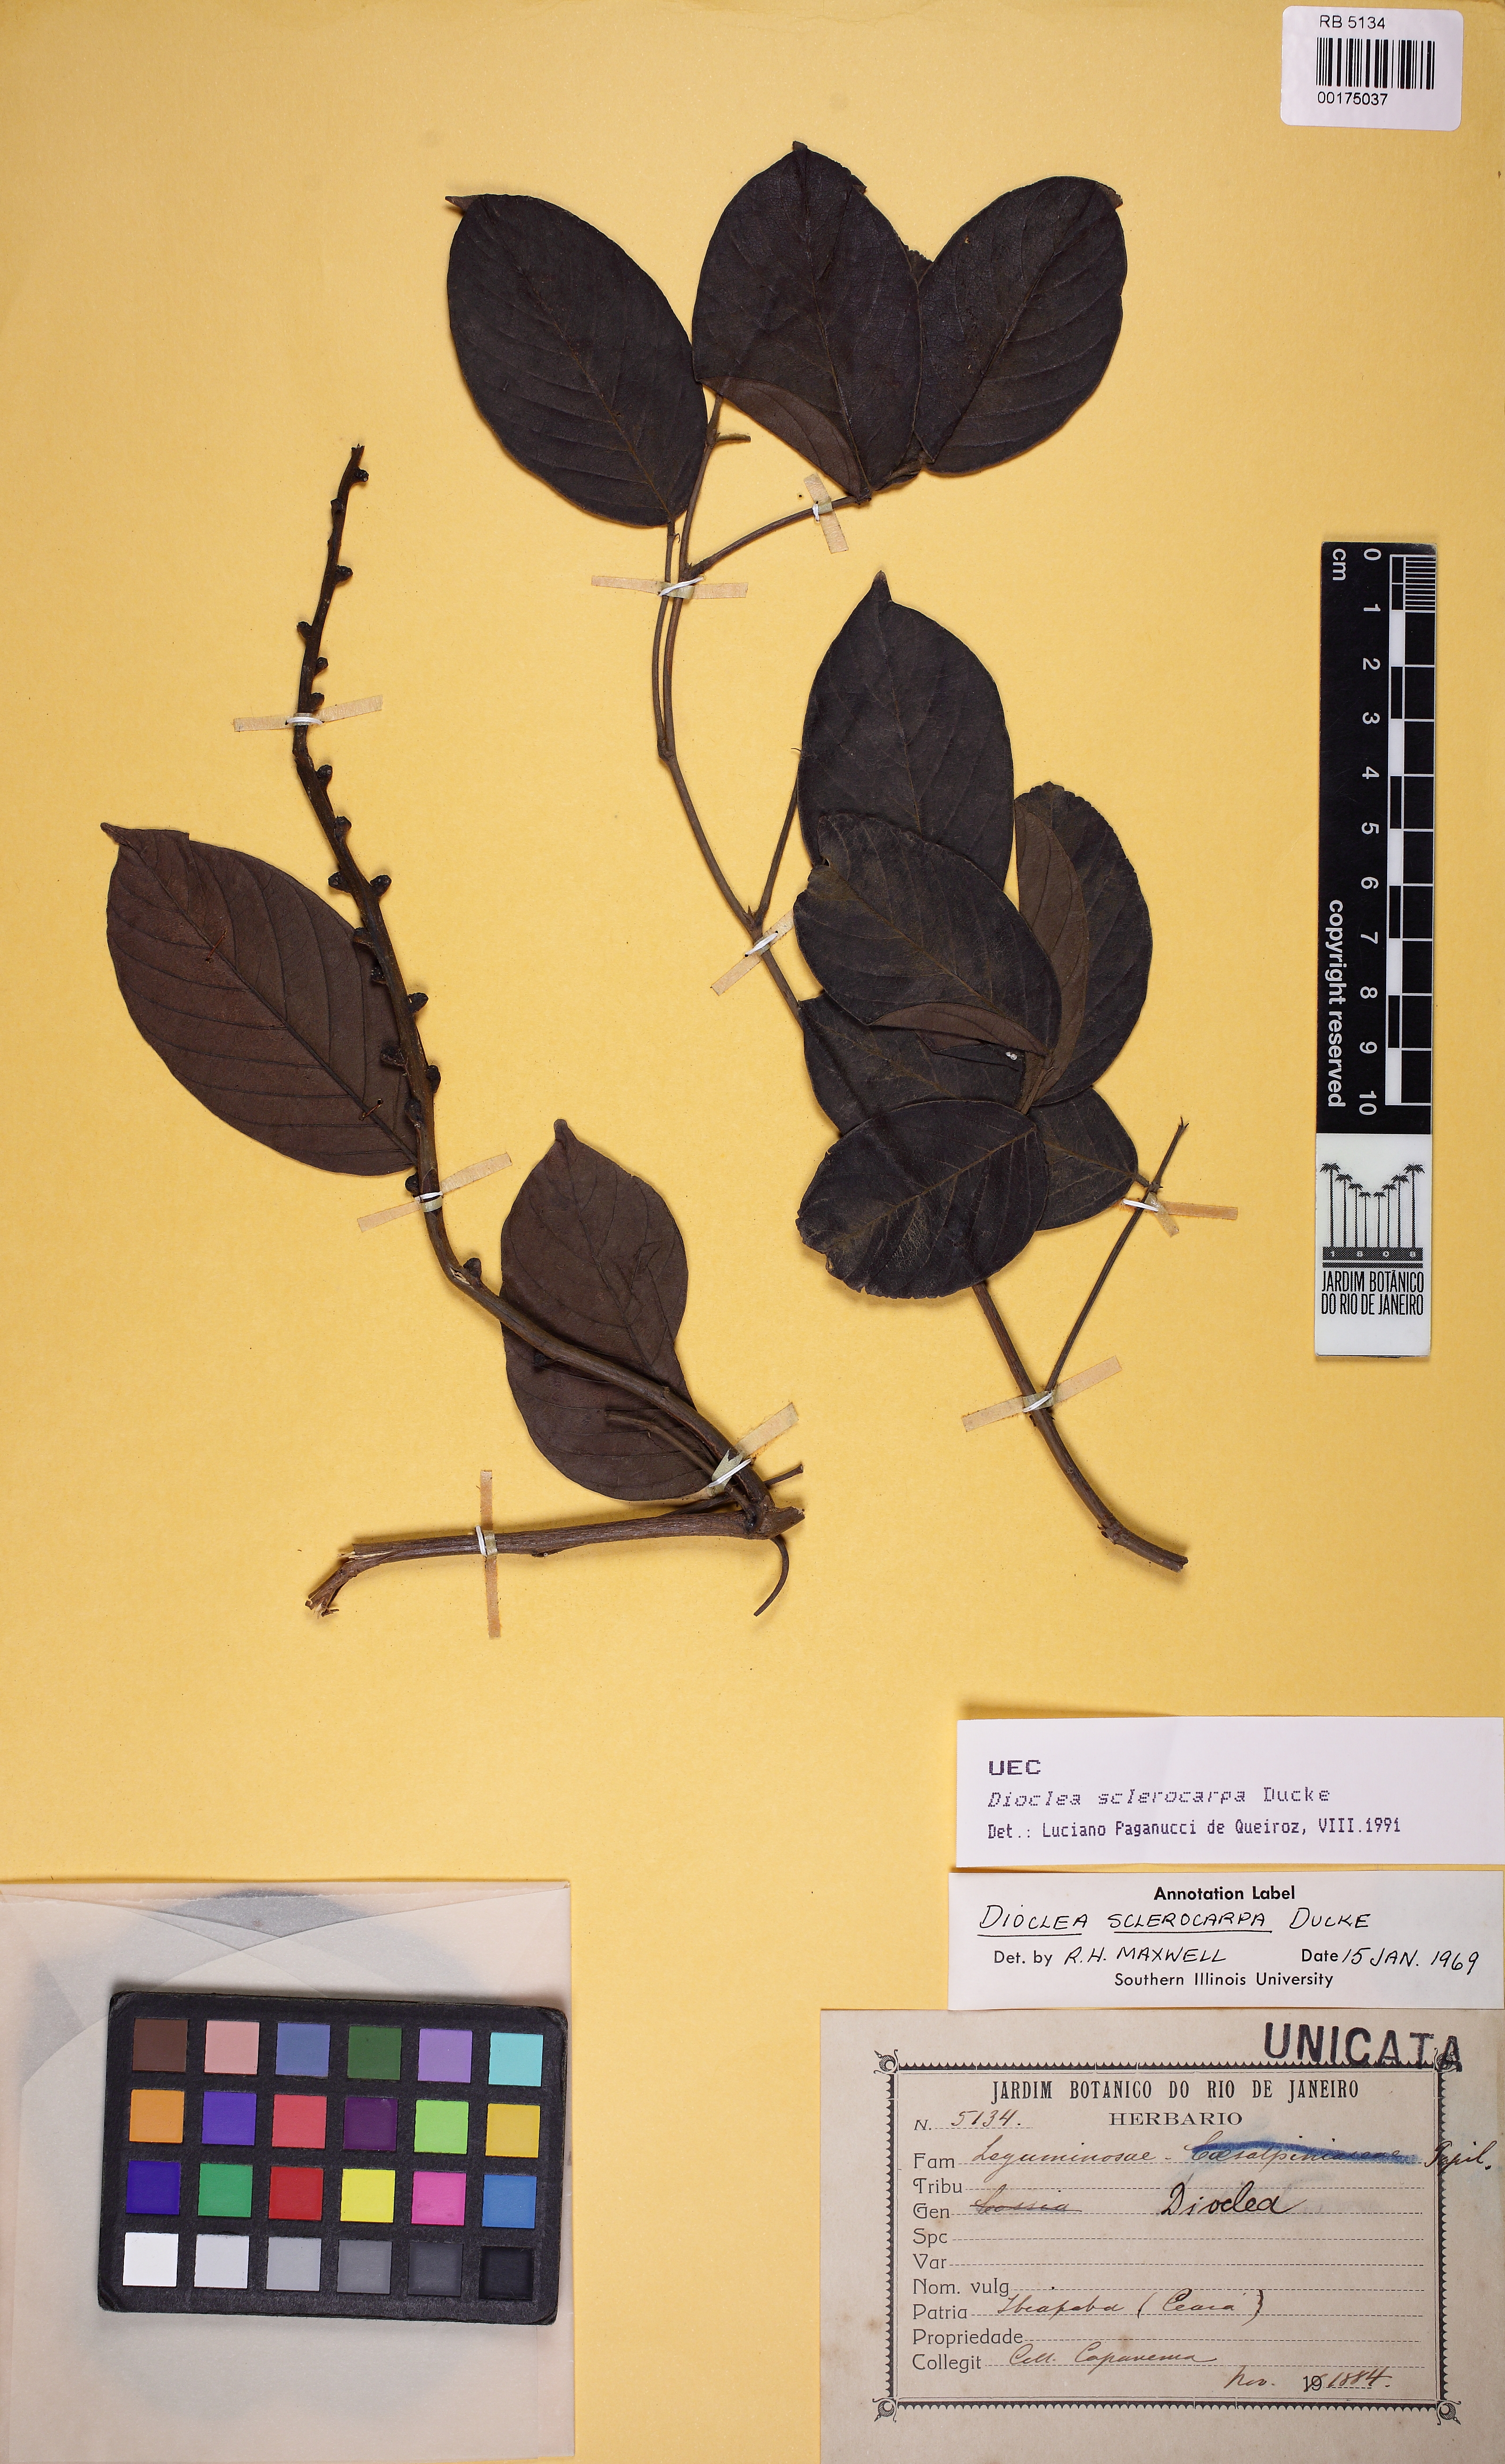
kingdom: Plantae
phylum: Tracheophyta
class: Magnoliopsida
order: Fabales
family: Fabaceae
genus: Macropsychanthus
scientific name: Macropsychanthus sclerocarpus
